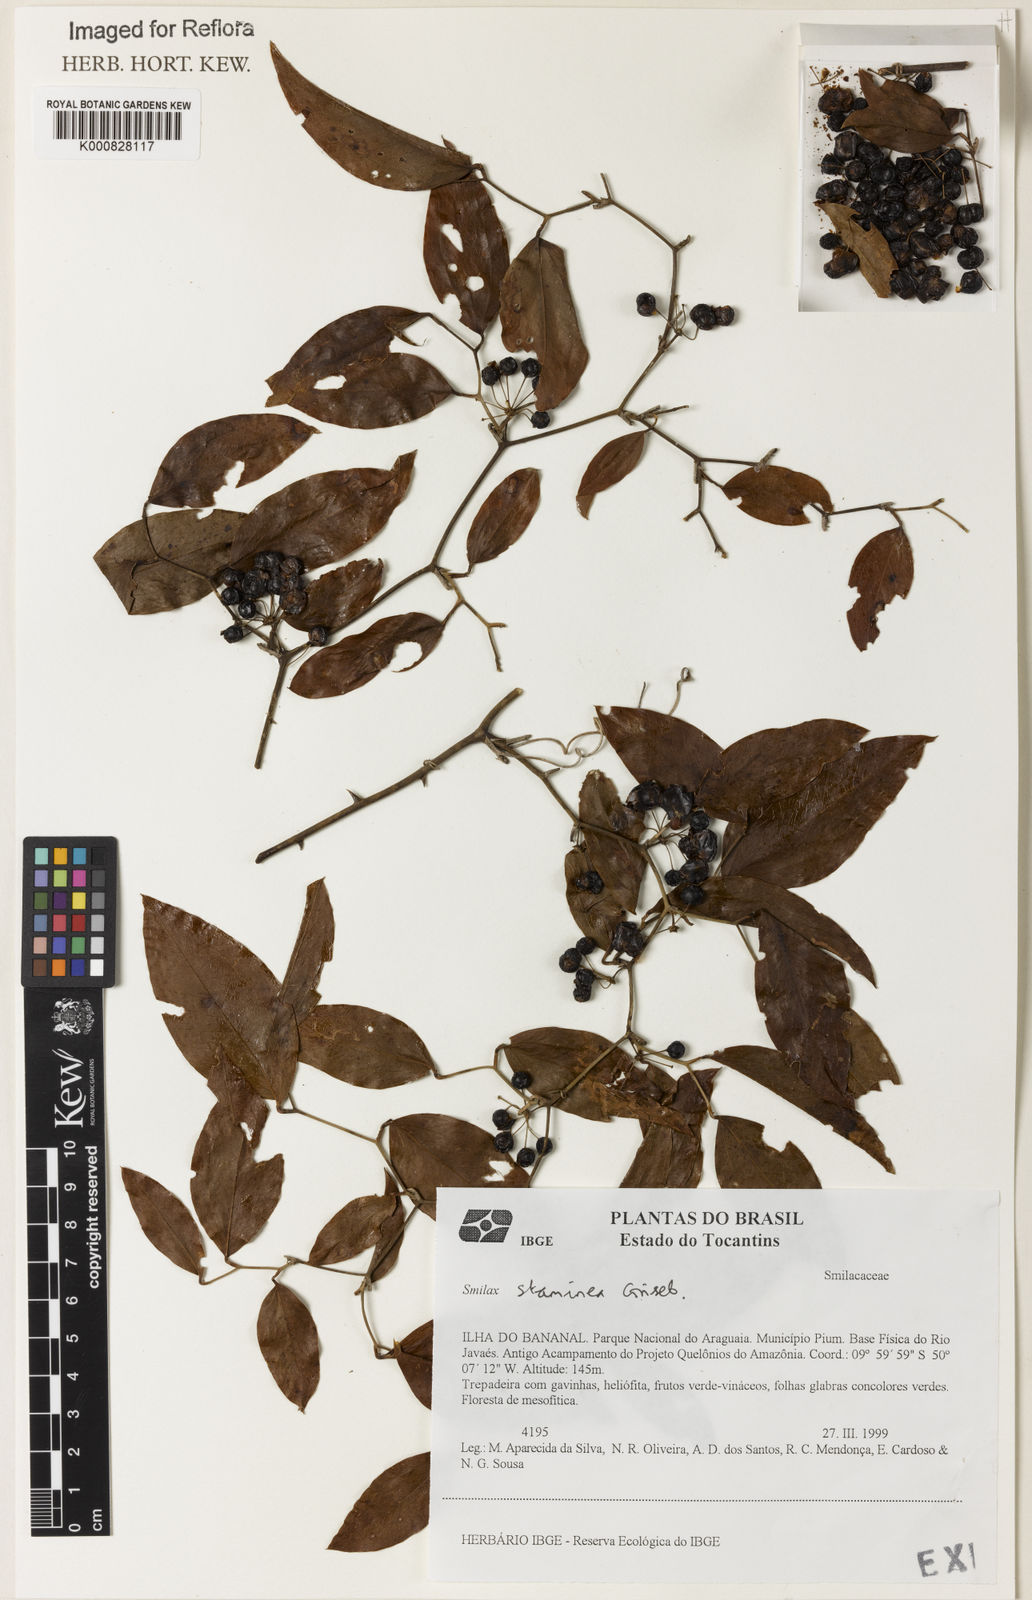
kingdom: Plantae
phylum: Tracheophyta
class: Liliopsida
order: Liliales
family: Smilacaceae
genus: Smilax
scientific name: Smilax domingensis
